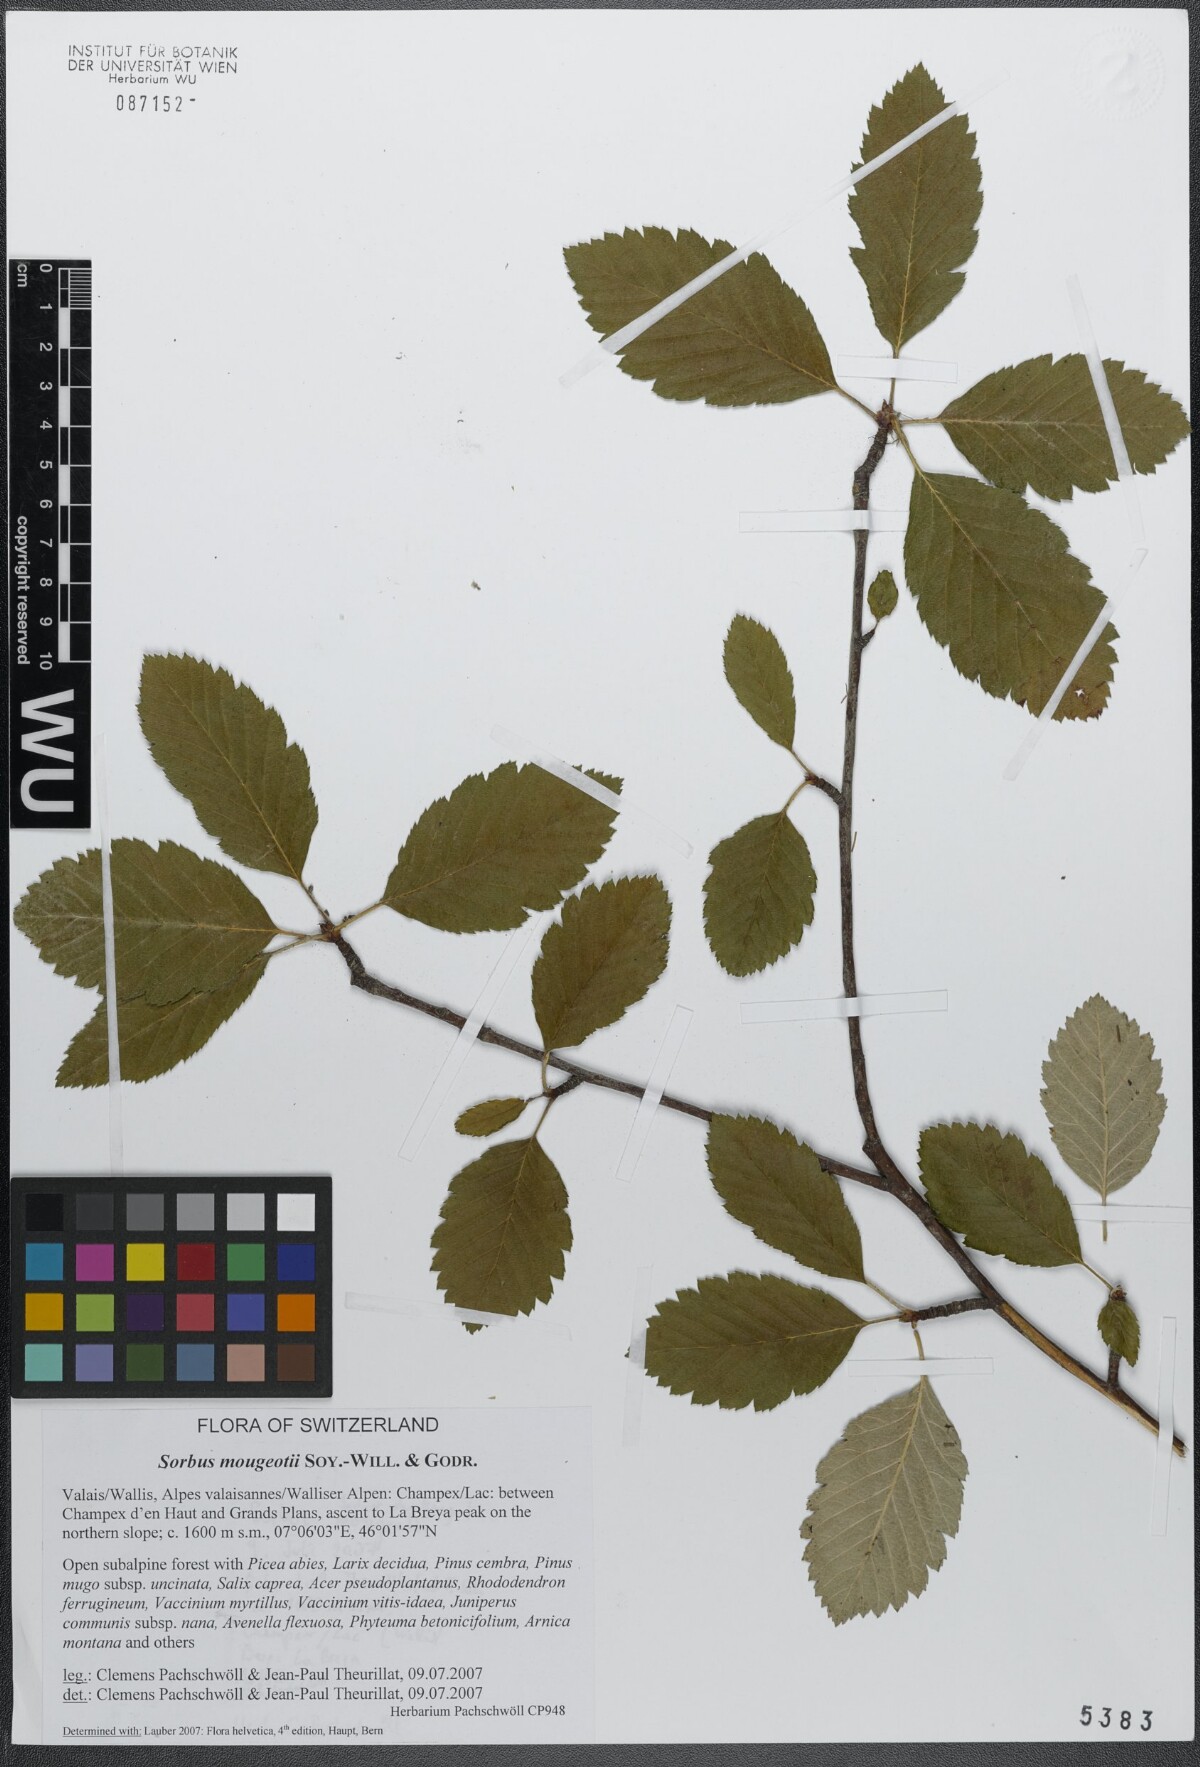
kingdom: Plantae
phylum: Tracheophyta
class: Magnoliopsida
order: Rosales
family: Rosaceae
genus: Hedlundia
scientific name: Hedlundia mougeotii
